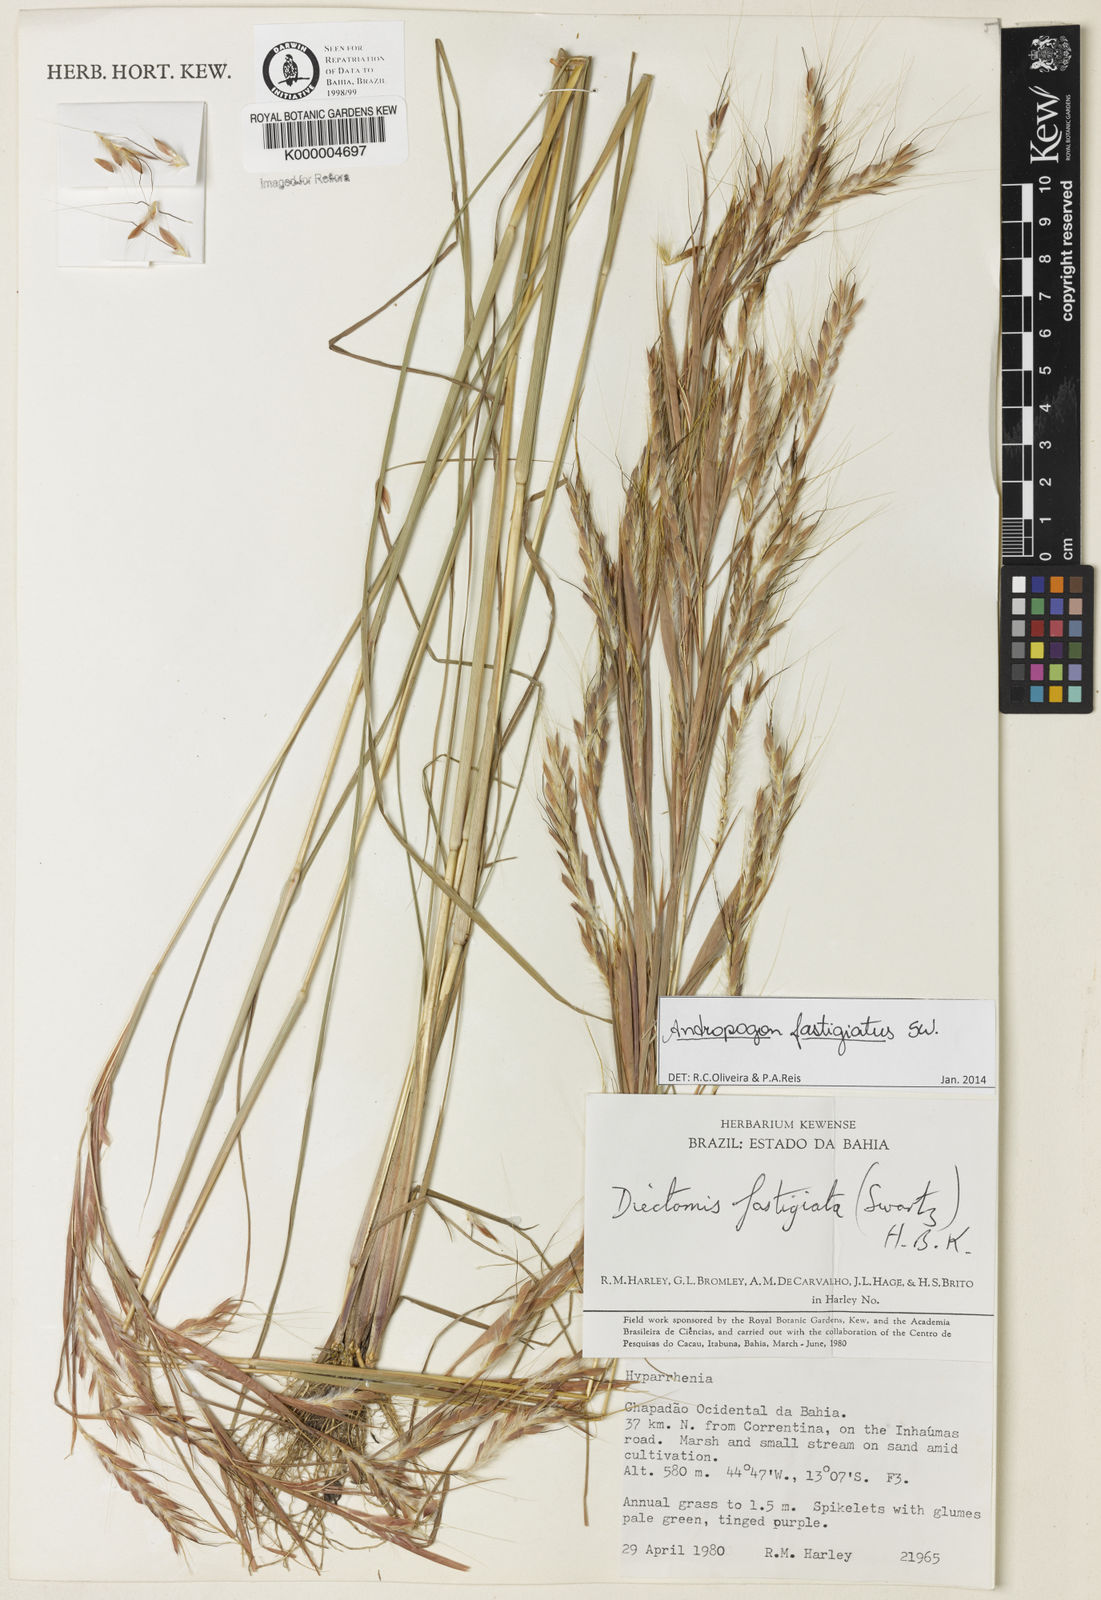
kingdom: Plantae
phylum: Tracheophyta
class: Liliopsida
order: Poales
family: Poaceae
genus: Diectomis
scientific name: Diectomis fastigiata
